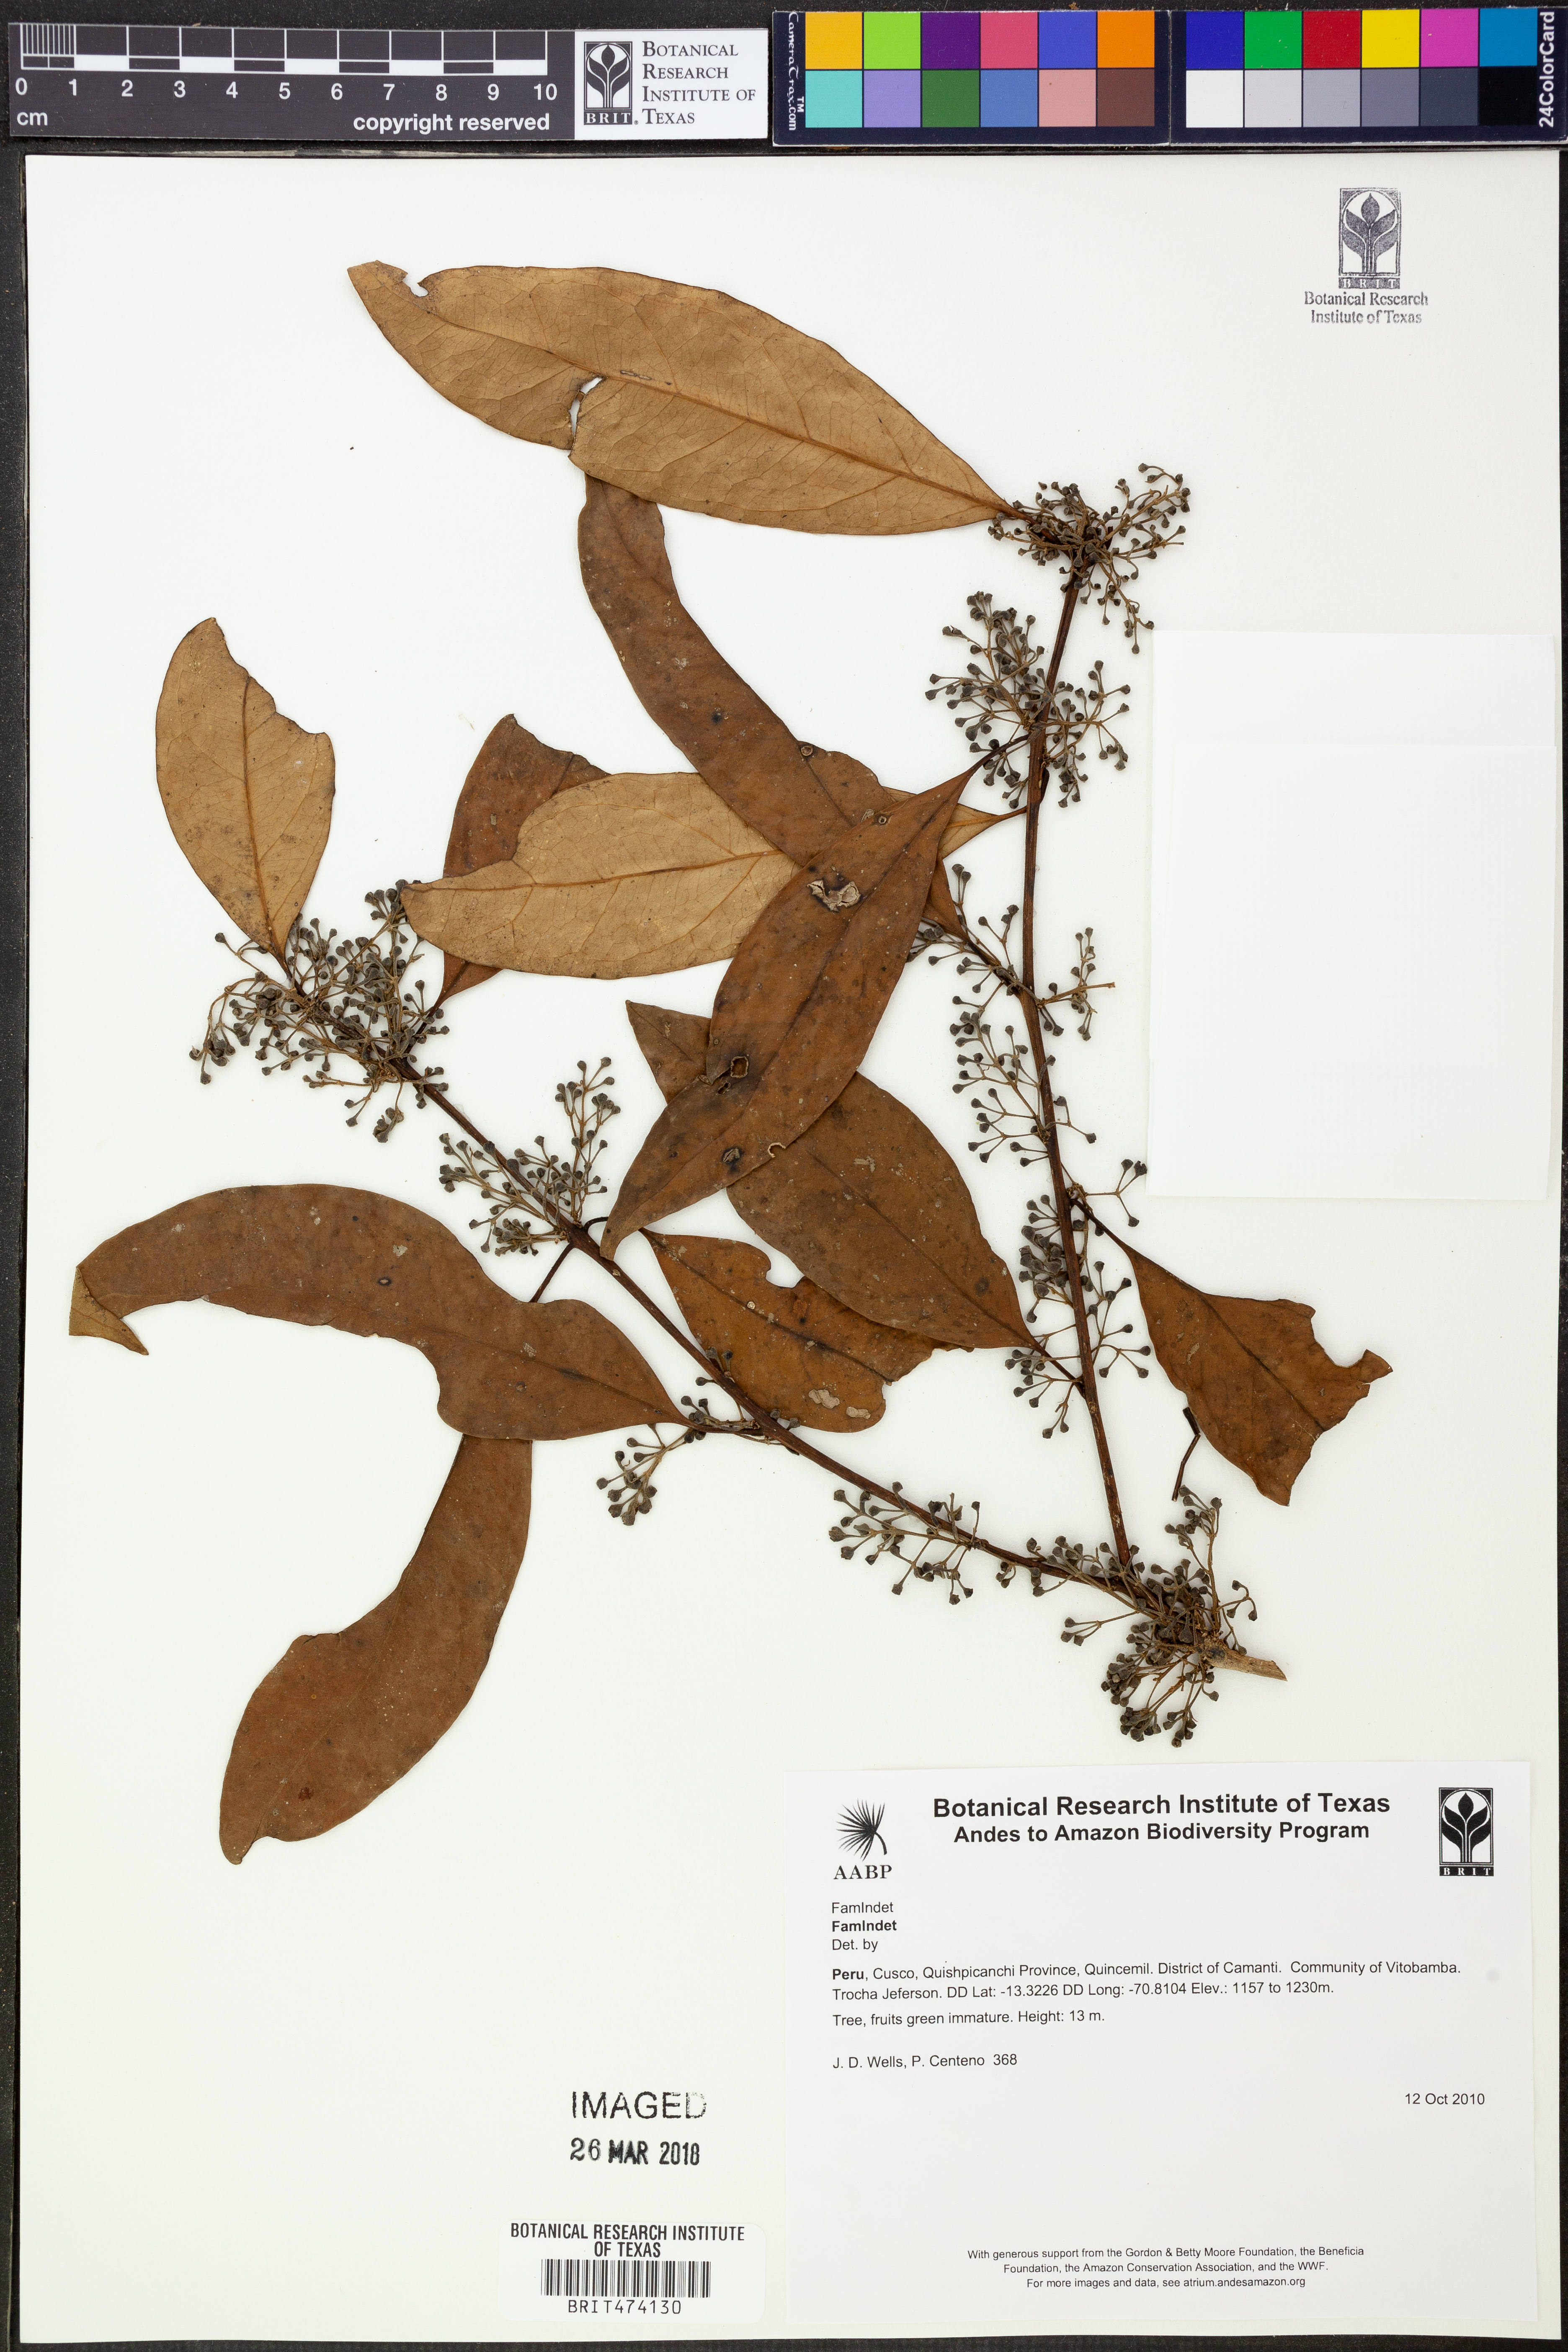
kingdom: Plantae
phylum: Tracheophyta
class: Magnoliopsida
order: Laurales
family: Monimiaceae
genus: Mollinedia
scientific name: Mollinedia
